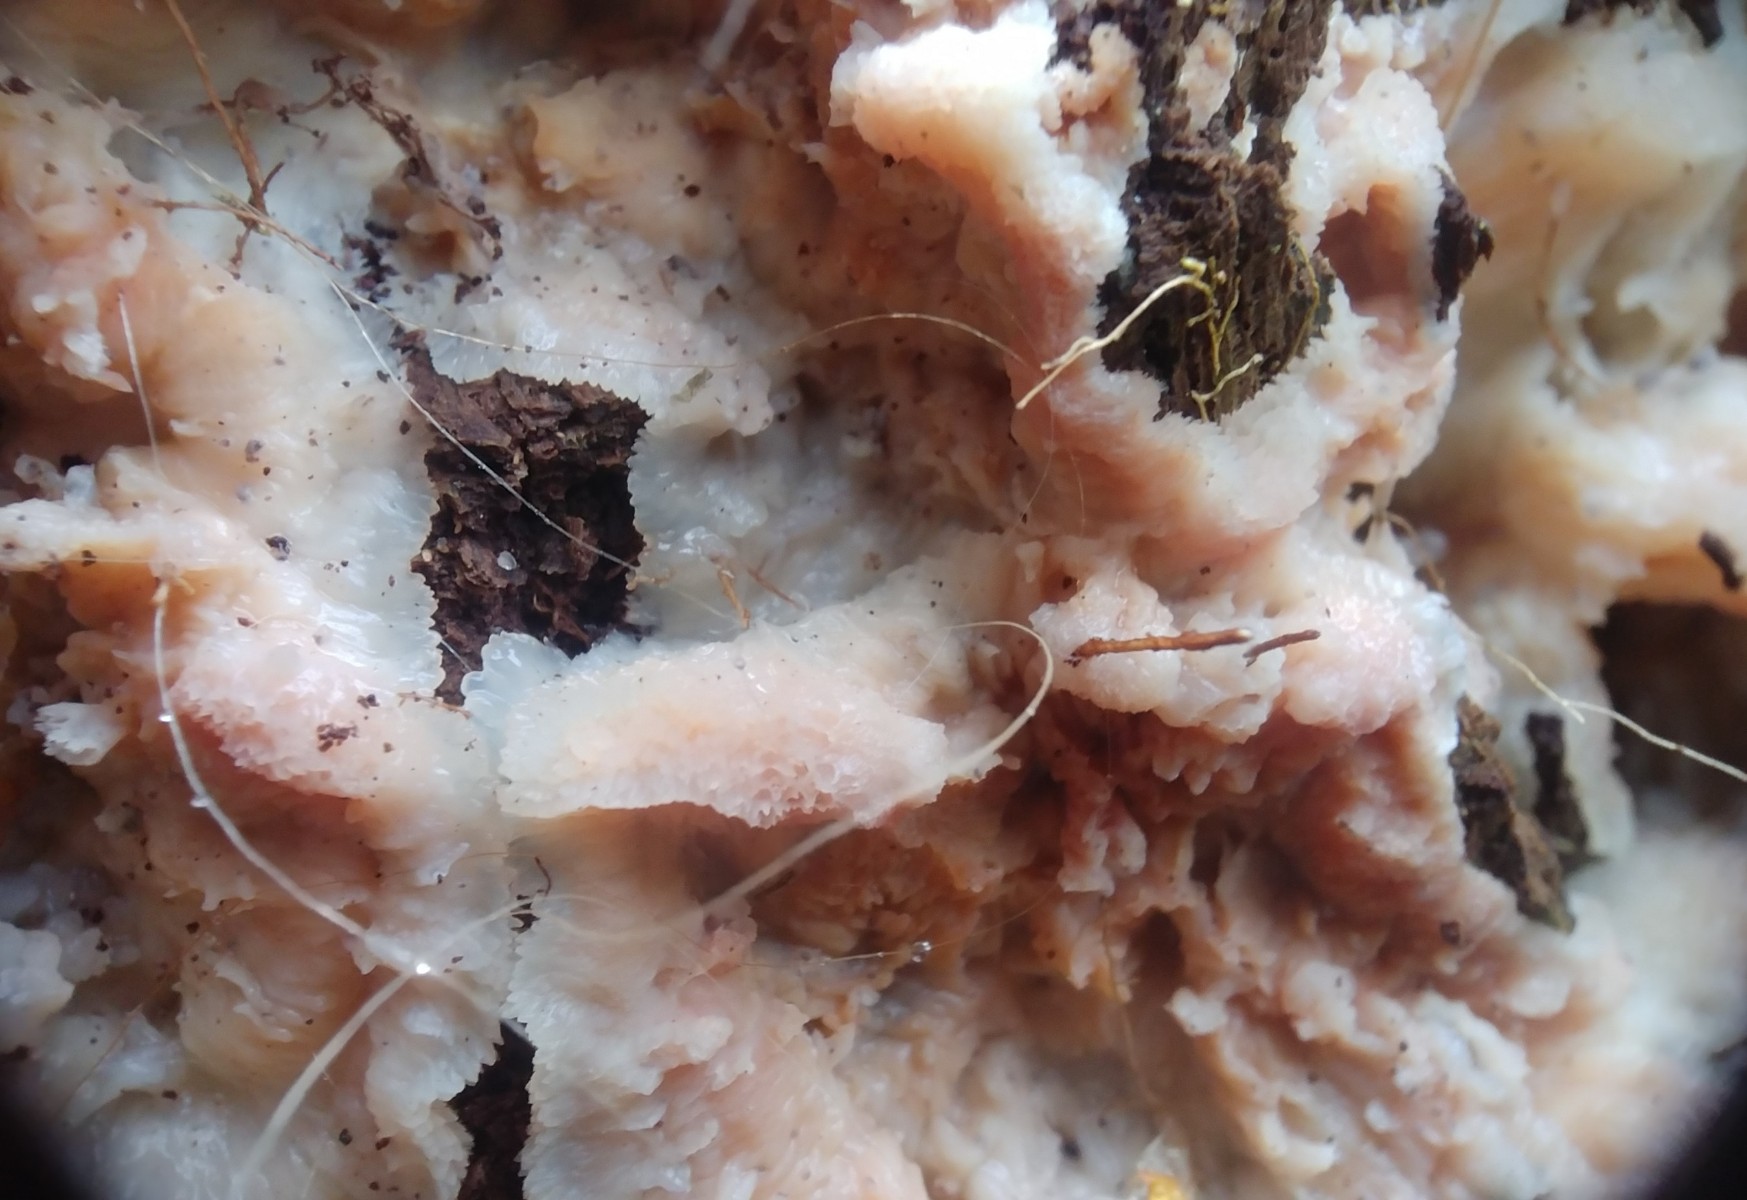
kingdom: Fungi
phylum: Basidiomycota
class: Agaricomycetes
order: Polyporales
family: Meruliaceae
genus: Phlebia
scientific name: Phlebia tremellosa
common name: bævrende åresvamp
